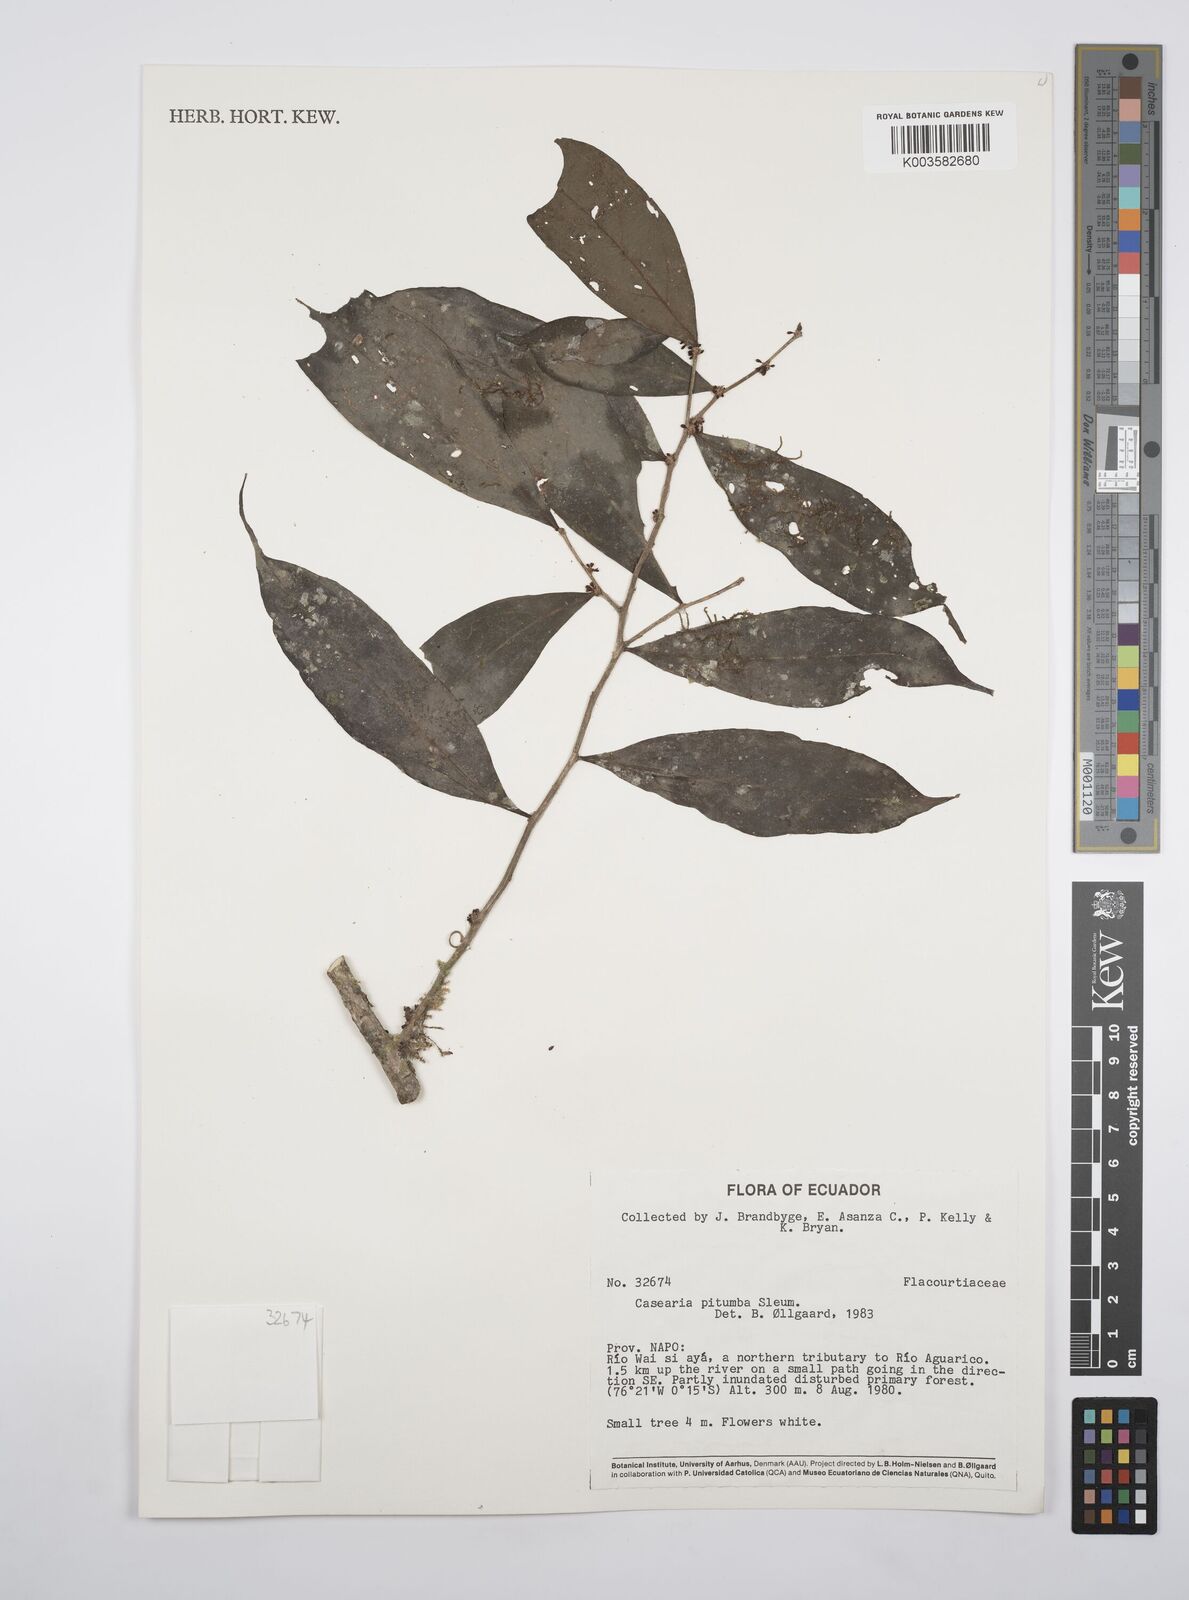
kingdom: Plantae
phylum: Tracheophyta
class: Magnoliopsida
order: Malpighiales
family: Salicaceae
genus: Casearia
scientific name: Casearia pitumba
